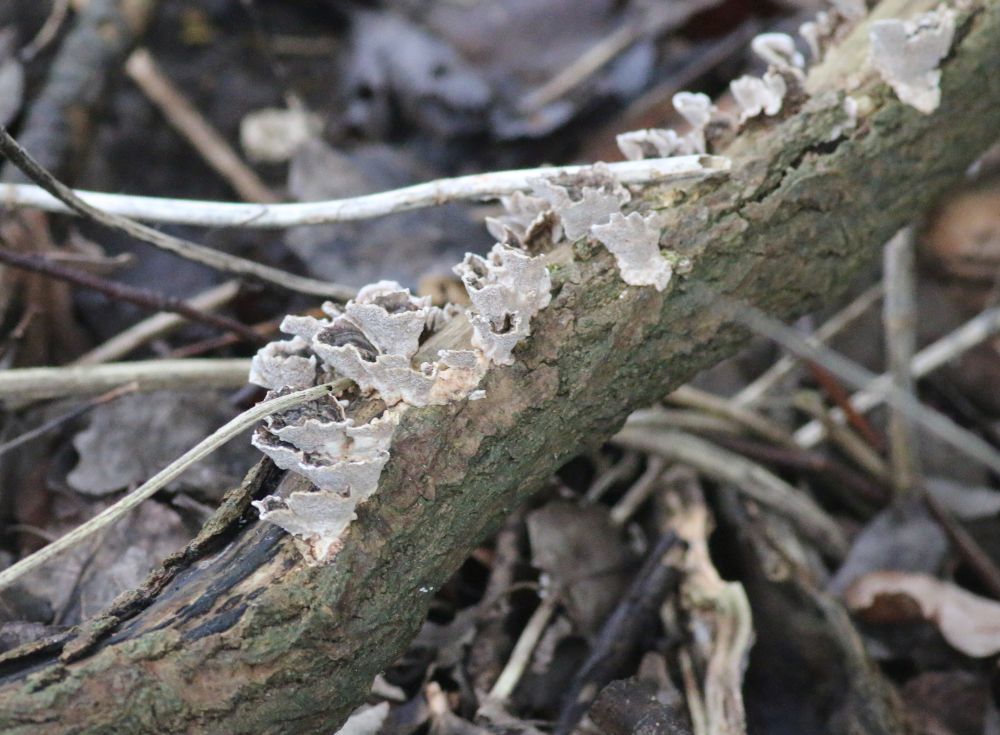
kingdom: Fungi
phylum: Basidiomycota
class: Agaricomycetes
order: Polyporales
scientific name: Polyporales
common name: poresvampordenen
